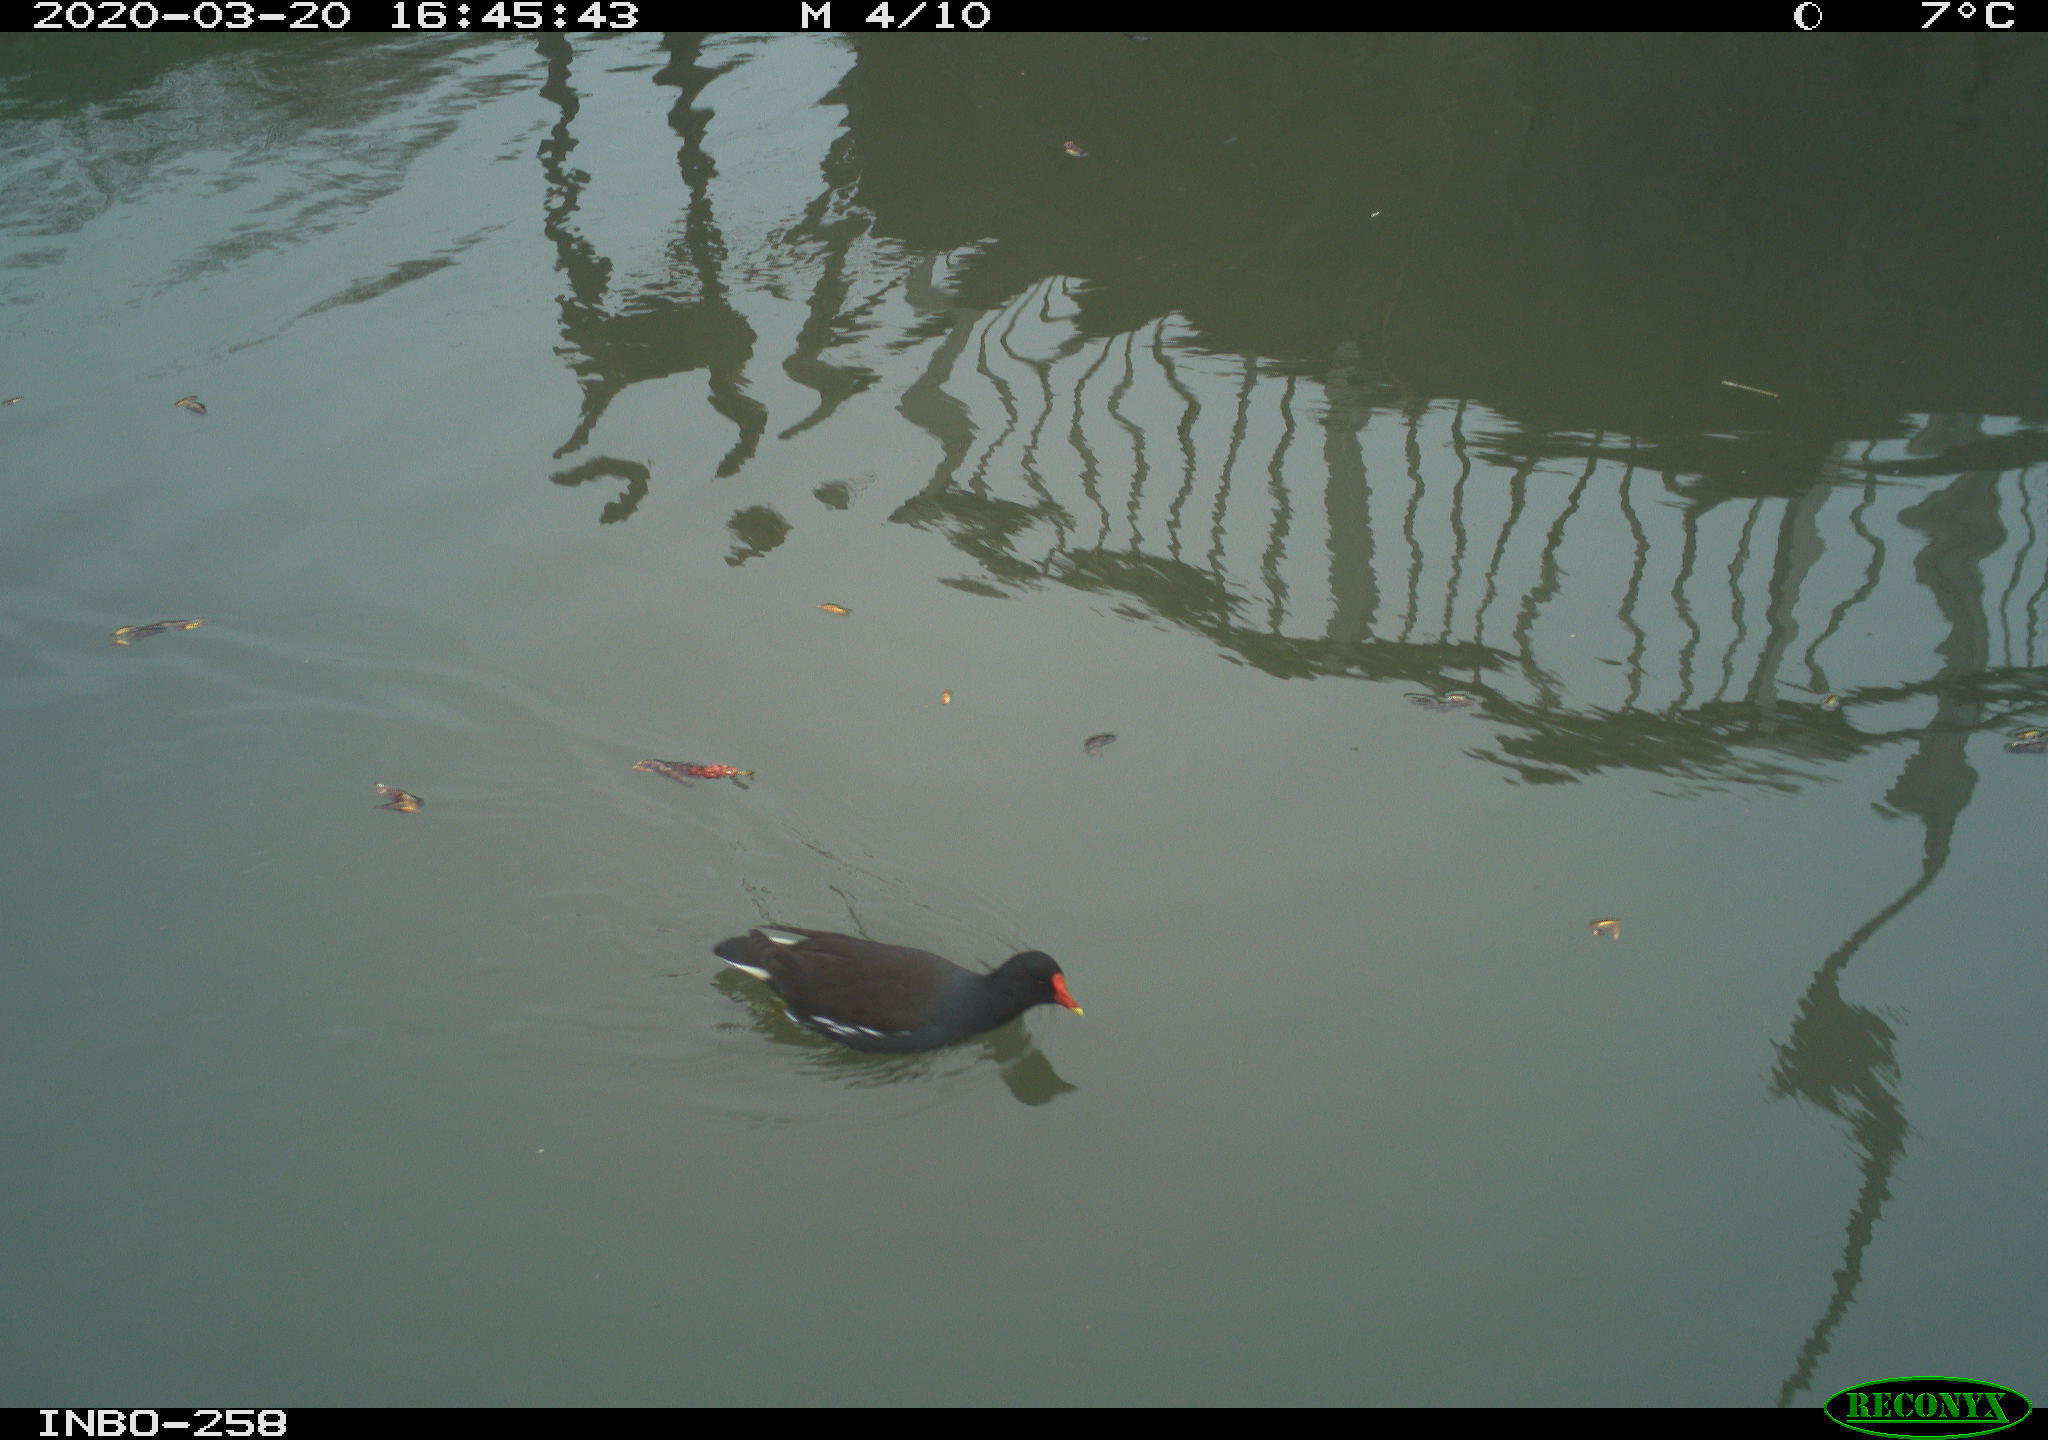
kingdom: Animalia
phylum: Chordata
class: Aves
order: Gruiformes
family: Rallidae
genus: Gallinula
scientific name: Gallinula chloropus
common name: Common moorhen
